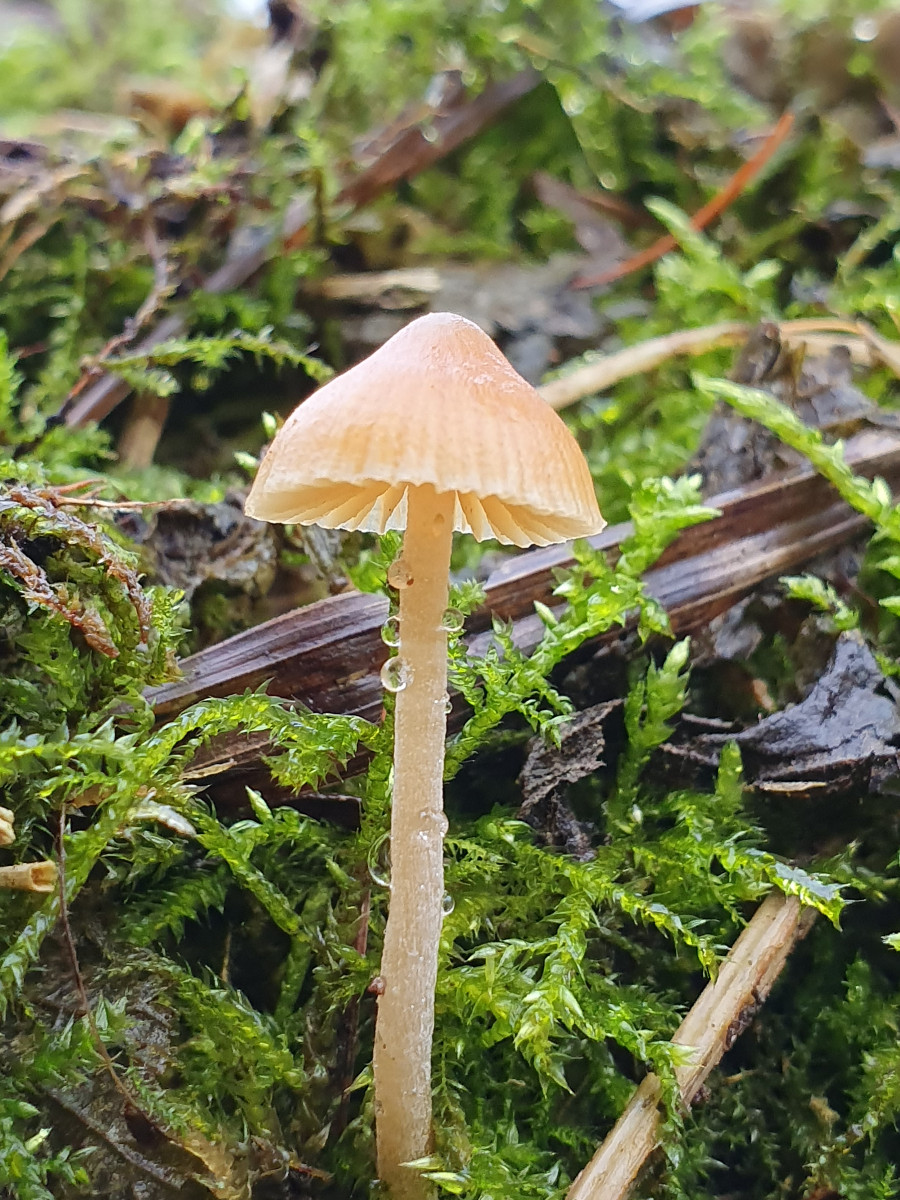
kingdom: Fungi
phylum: Basidiomycota
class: Agaricomycetes
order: Agaricales
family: Hymenogastraceae
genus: Galerina
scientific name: Galerina
